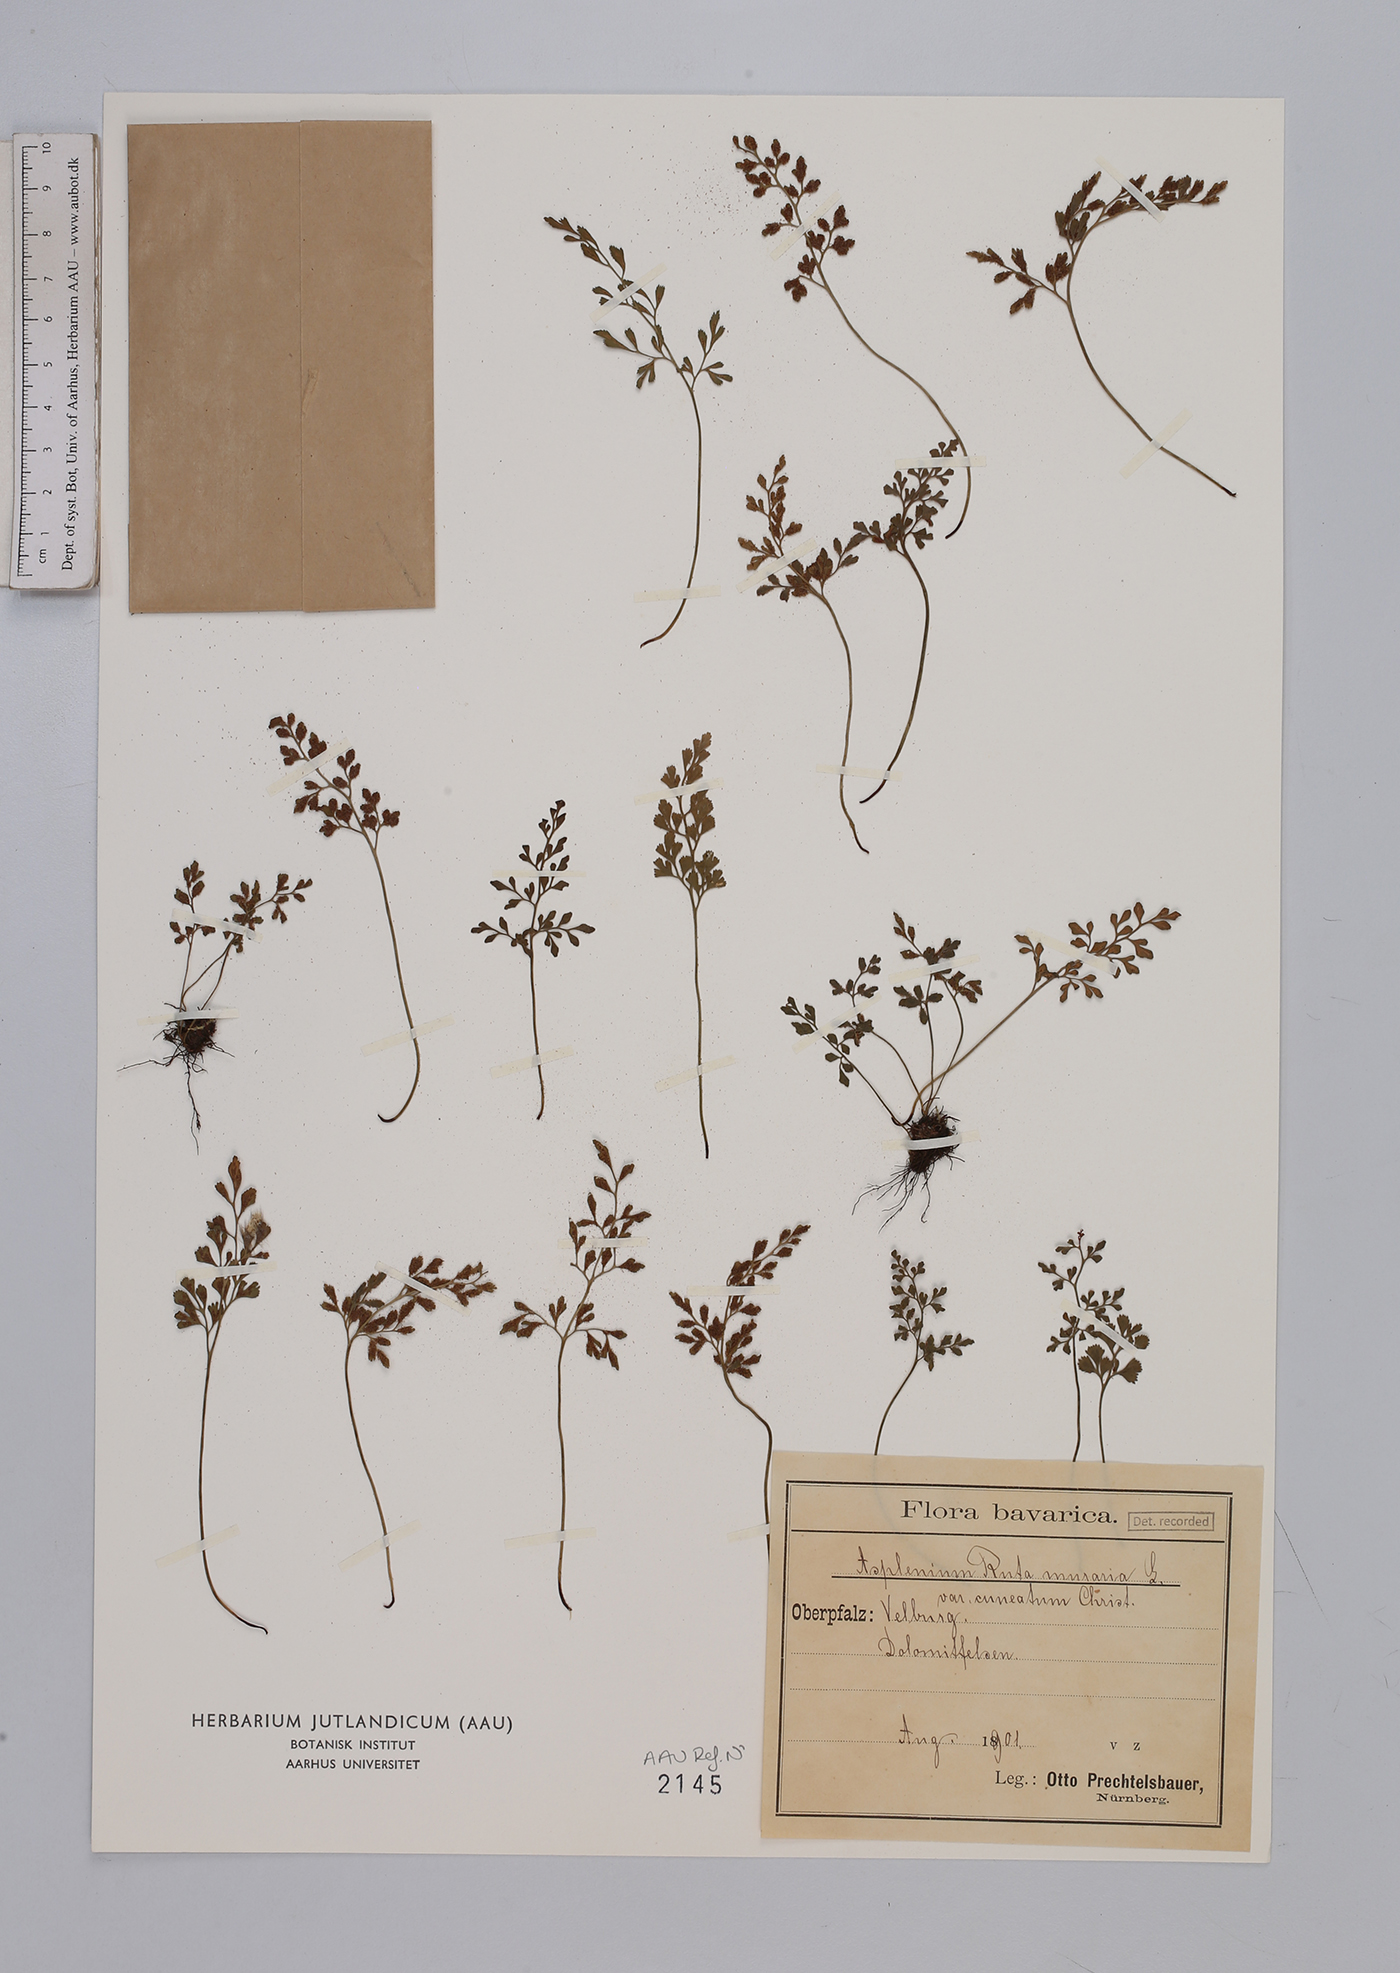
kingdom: Plantae
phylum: Tracheophyta
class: Polypodiopsida
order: Polypodiales
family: Aspleniaceae
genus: Asplenium
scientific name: Asplenium ruta-muraria
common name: Wall-rue
